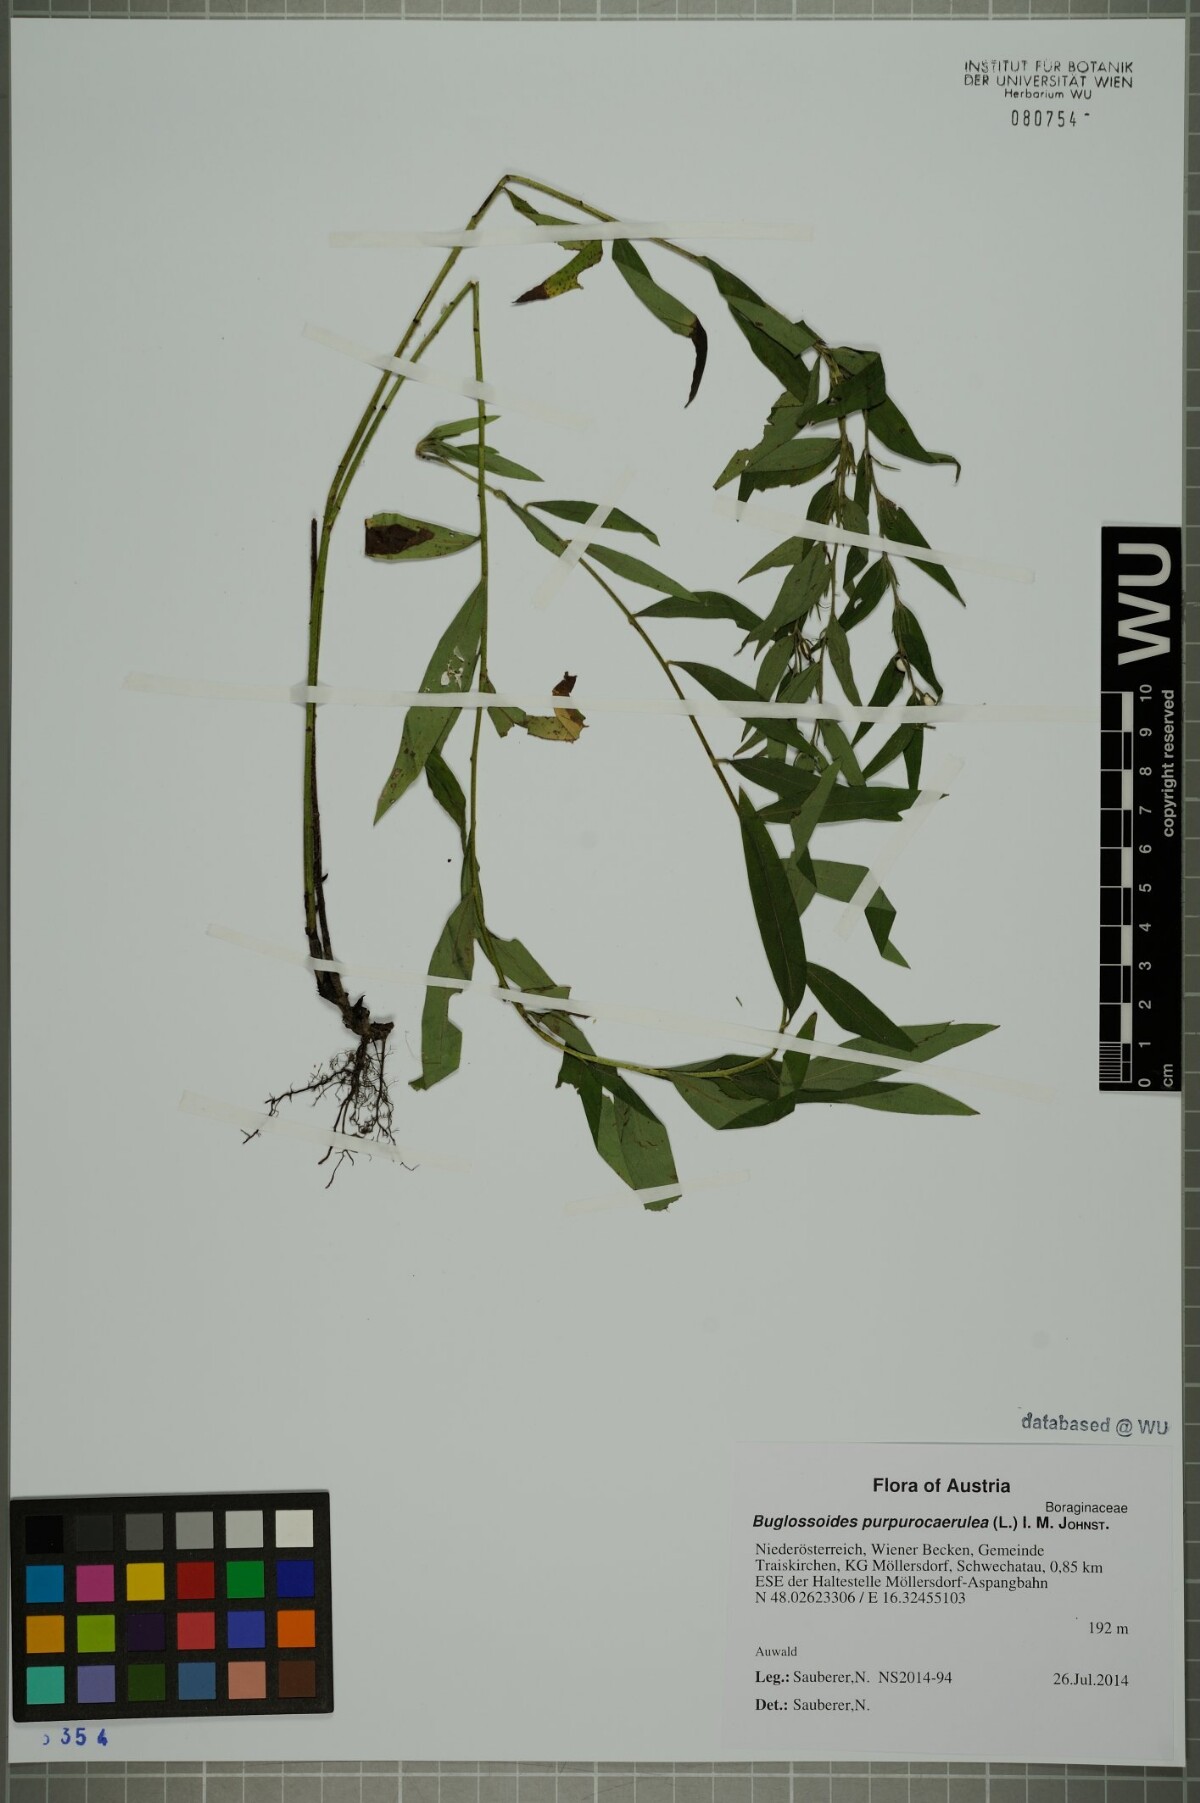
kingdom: Plantae
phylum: Tracheophyta
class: Magnoliopsida
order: Boraginales
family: Boraginaceae
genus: Aegonychon
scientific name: Aegonychon purpurocaeruleum
